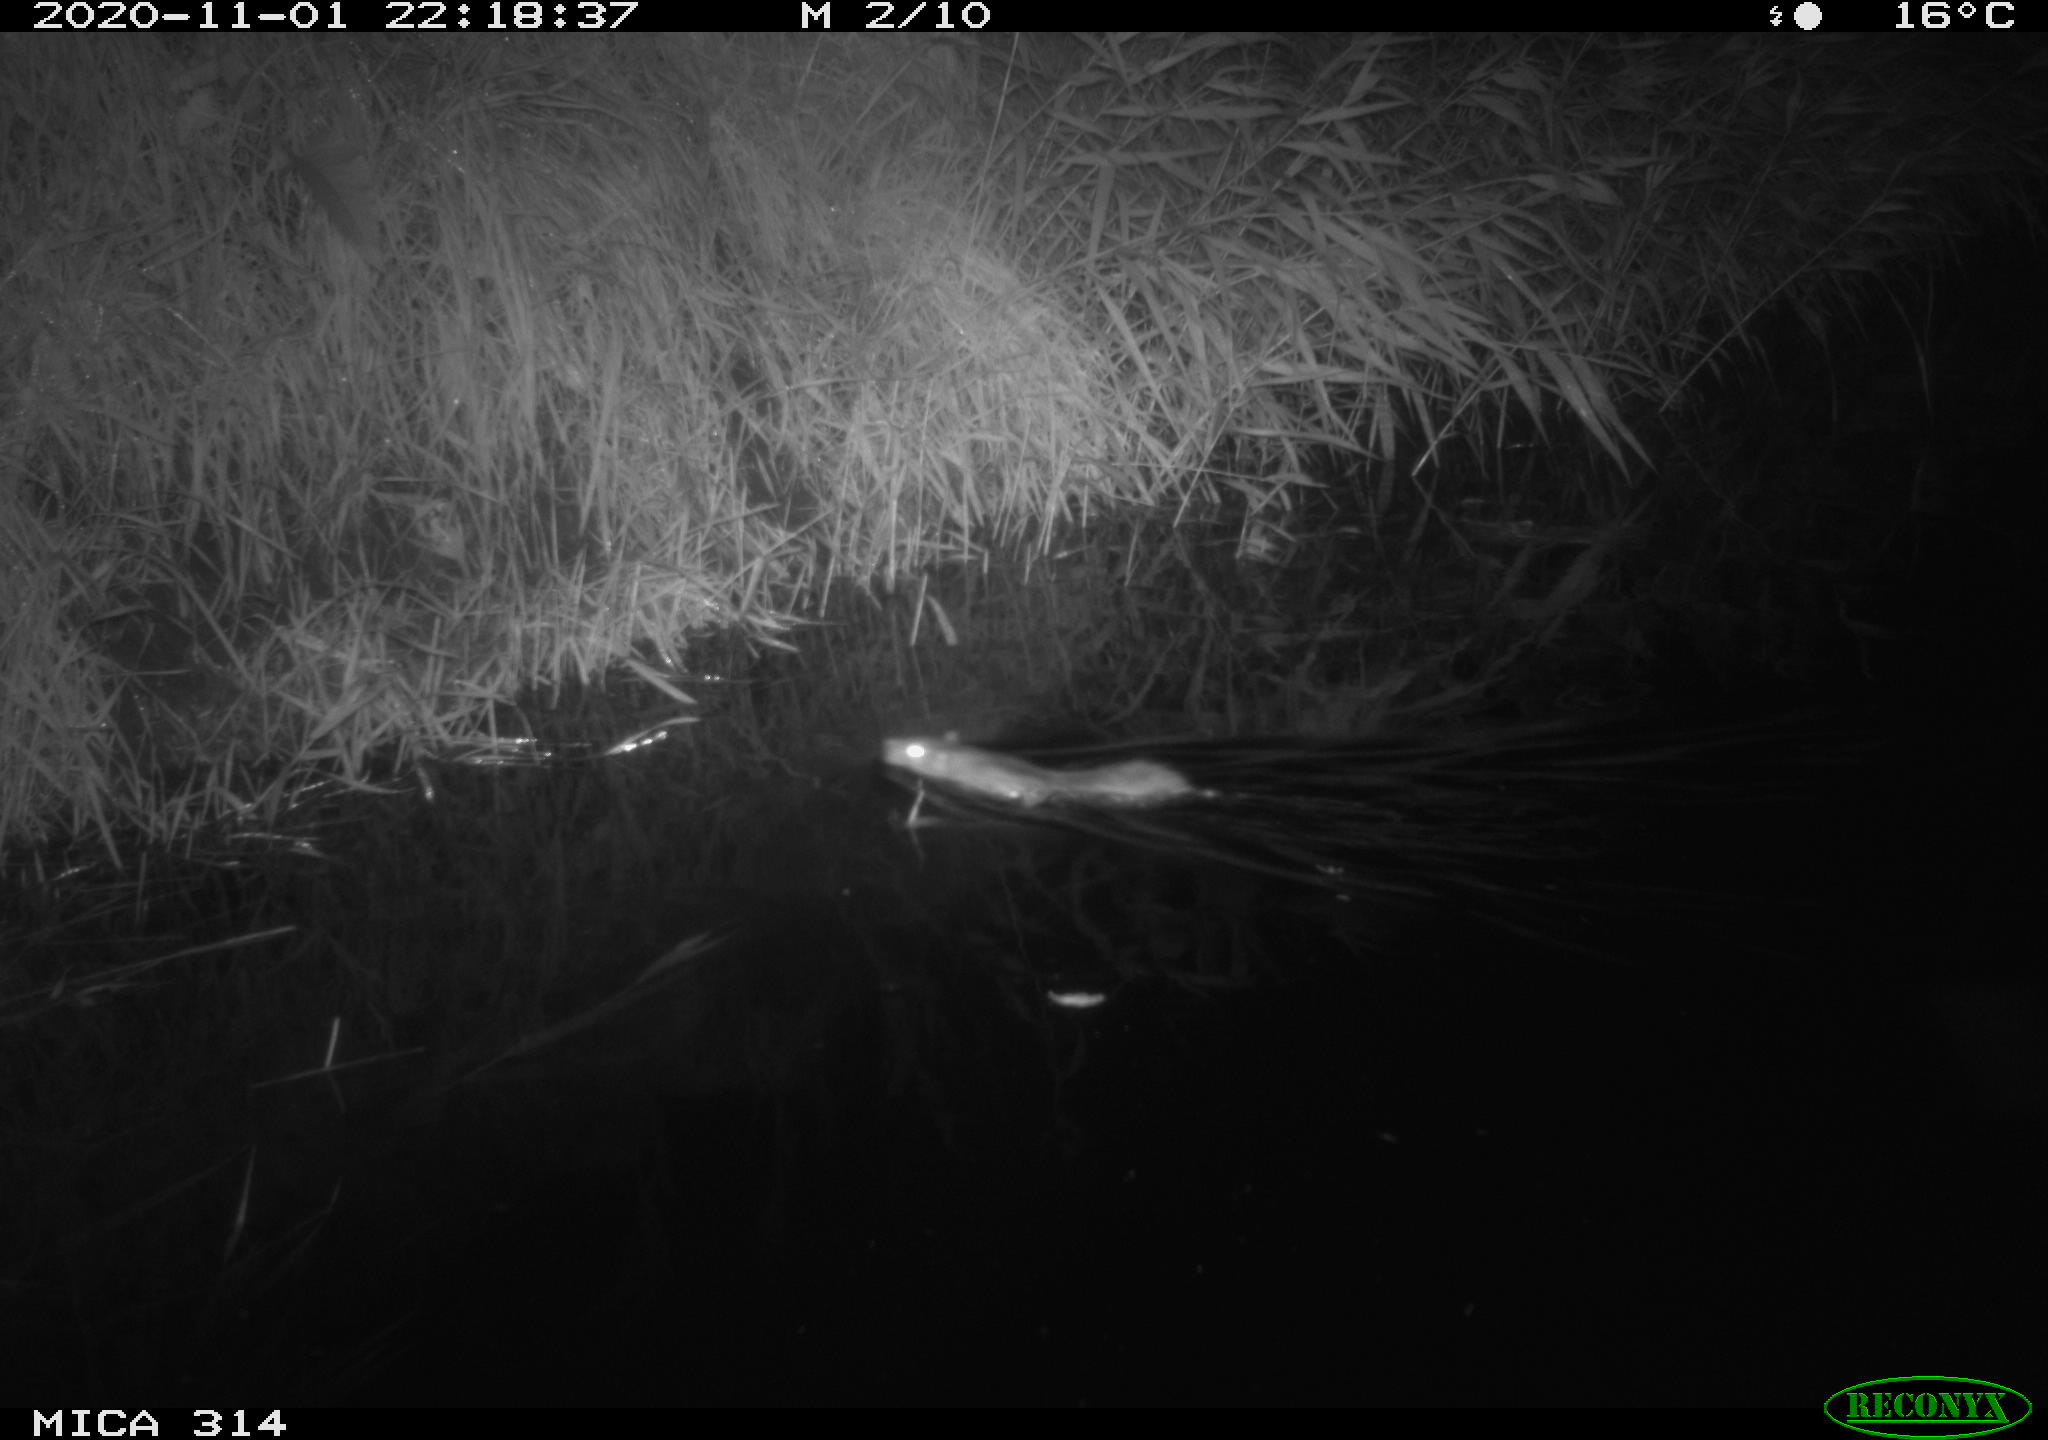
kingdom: Animalia
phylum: Chordata
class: Mammalia
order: Rodentia
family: Muridae
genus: Rattus
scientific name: Rattus norvegicus
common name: Brown rat
